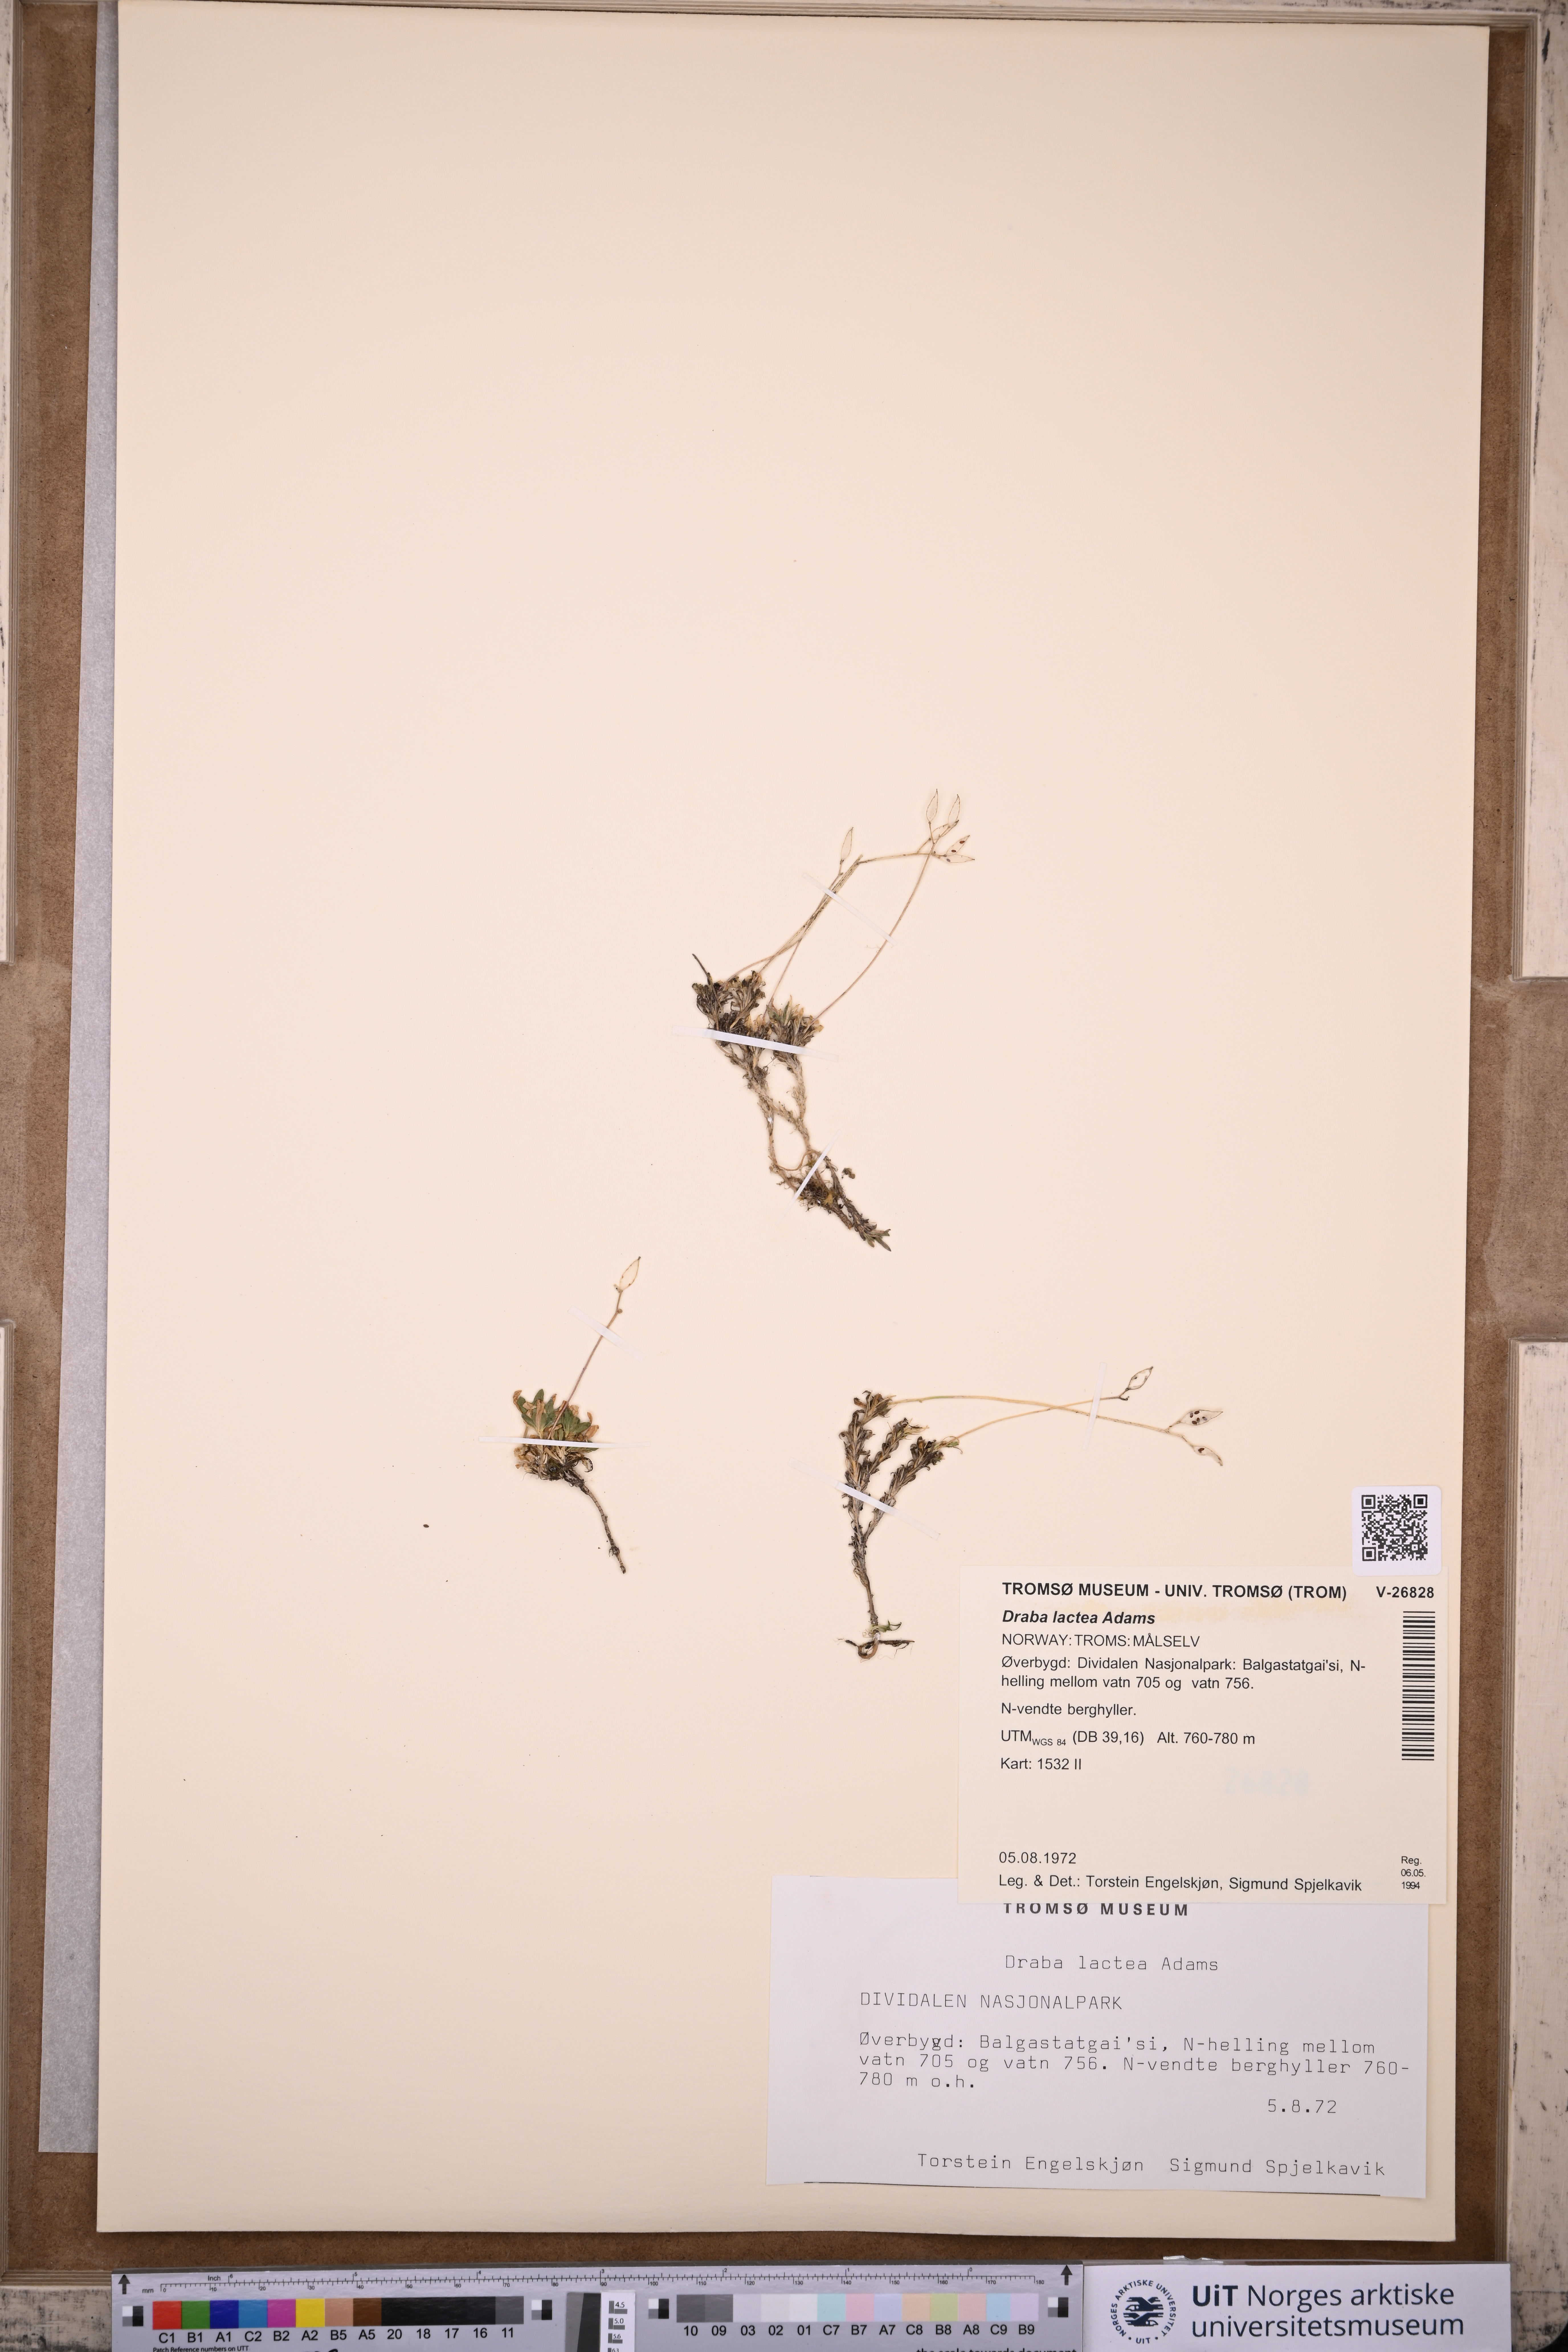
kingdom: Plantae
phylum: Tracheophyta
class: Magnoliopsida
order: Brassicales
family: Brassicaceae
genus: Draba
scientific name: Draba lactea
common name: Milky draba
